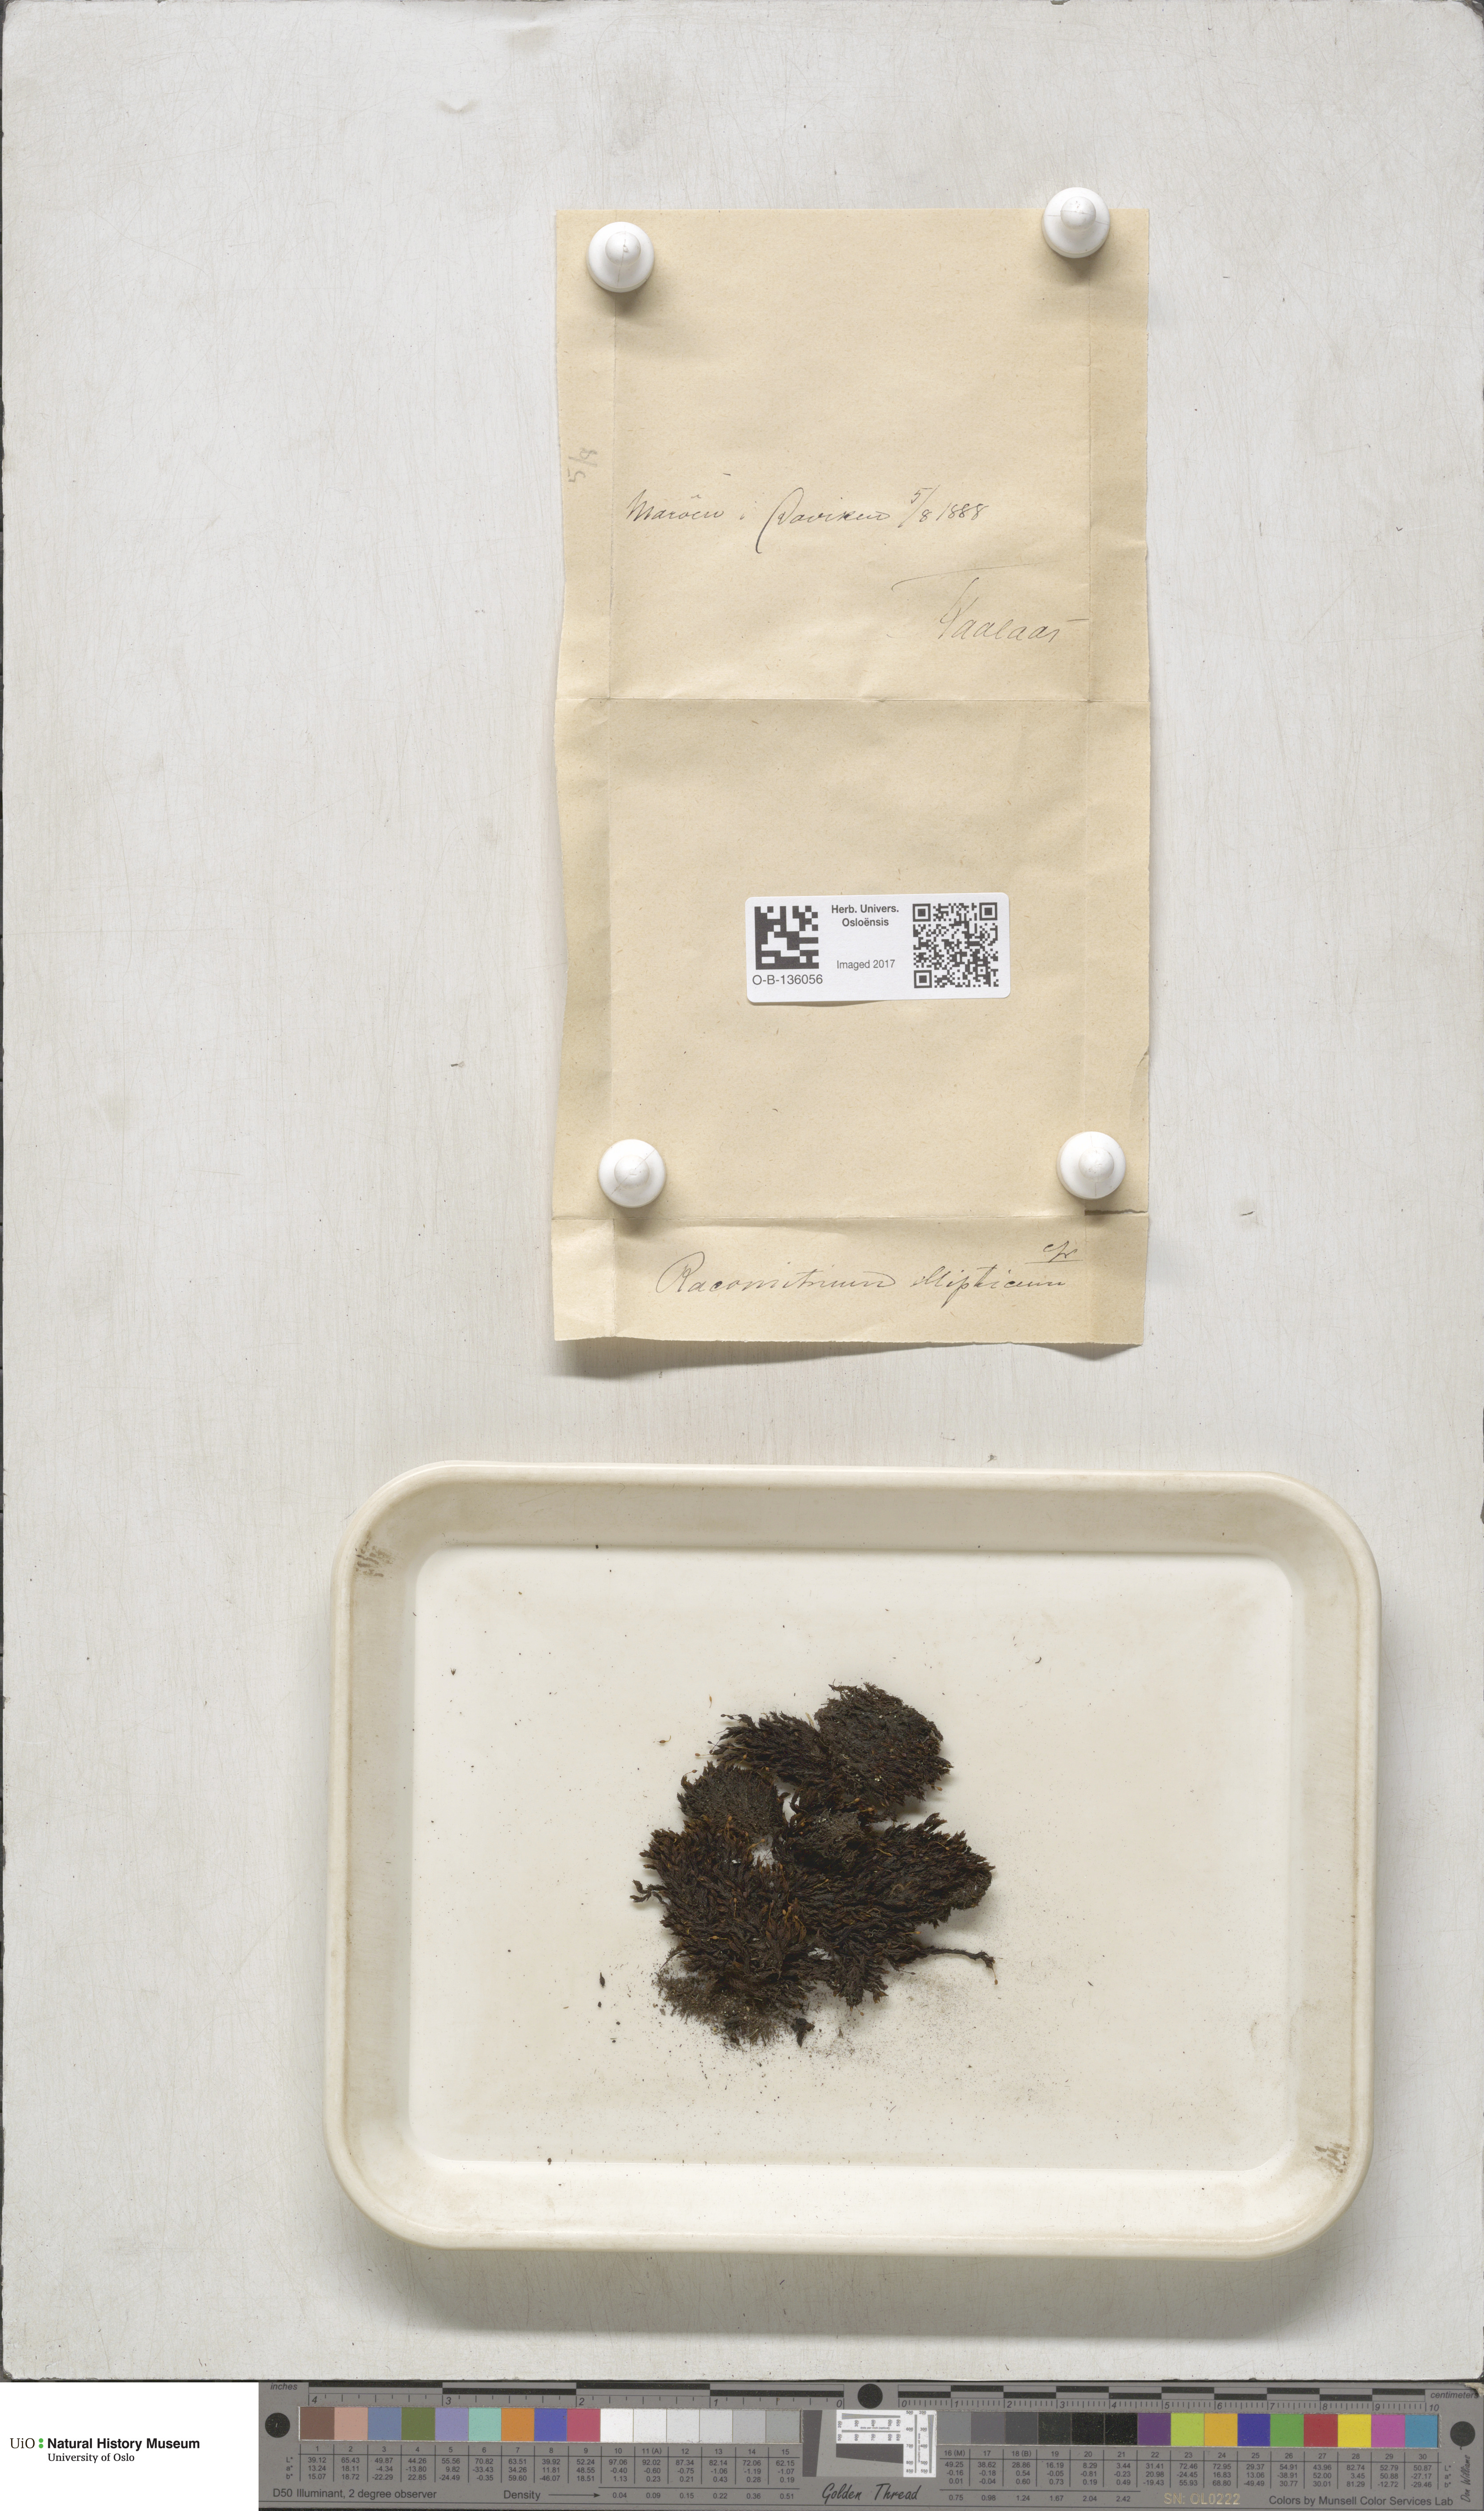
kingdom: Plantae
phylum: Bryophyta
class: Bryopsida
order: Grimmiales
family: Grimmiaceae
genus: Bucklandiella
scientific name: Bucklandiella elliptica
